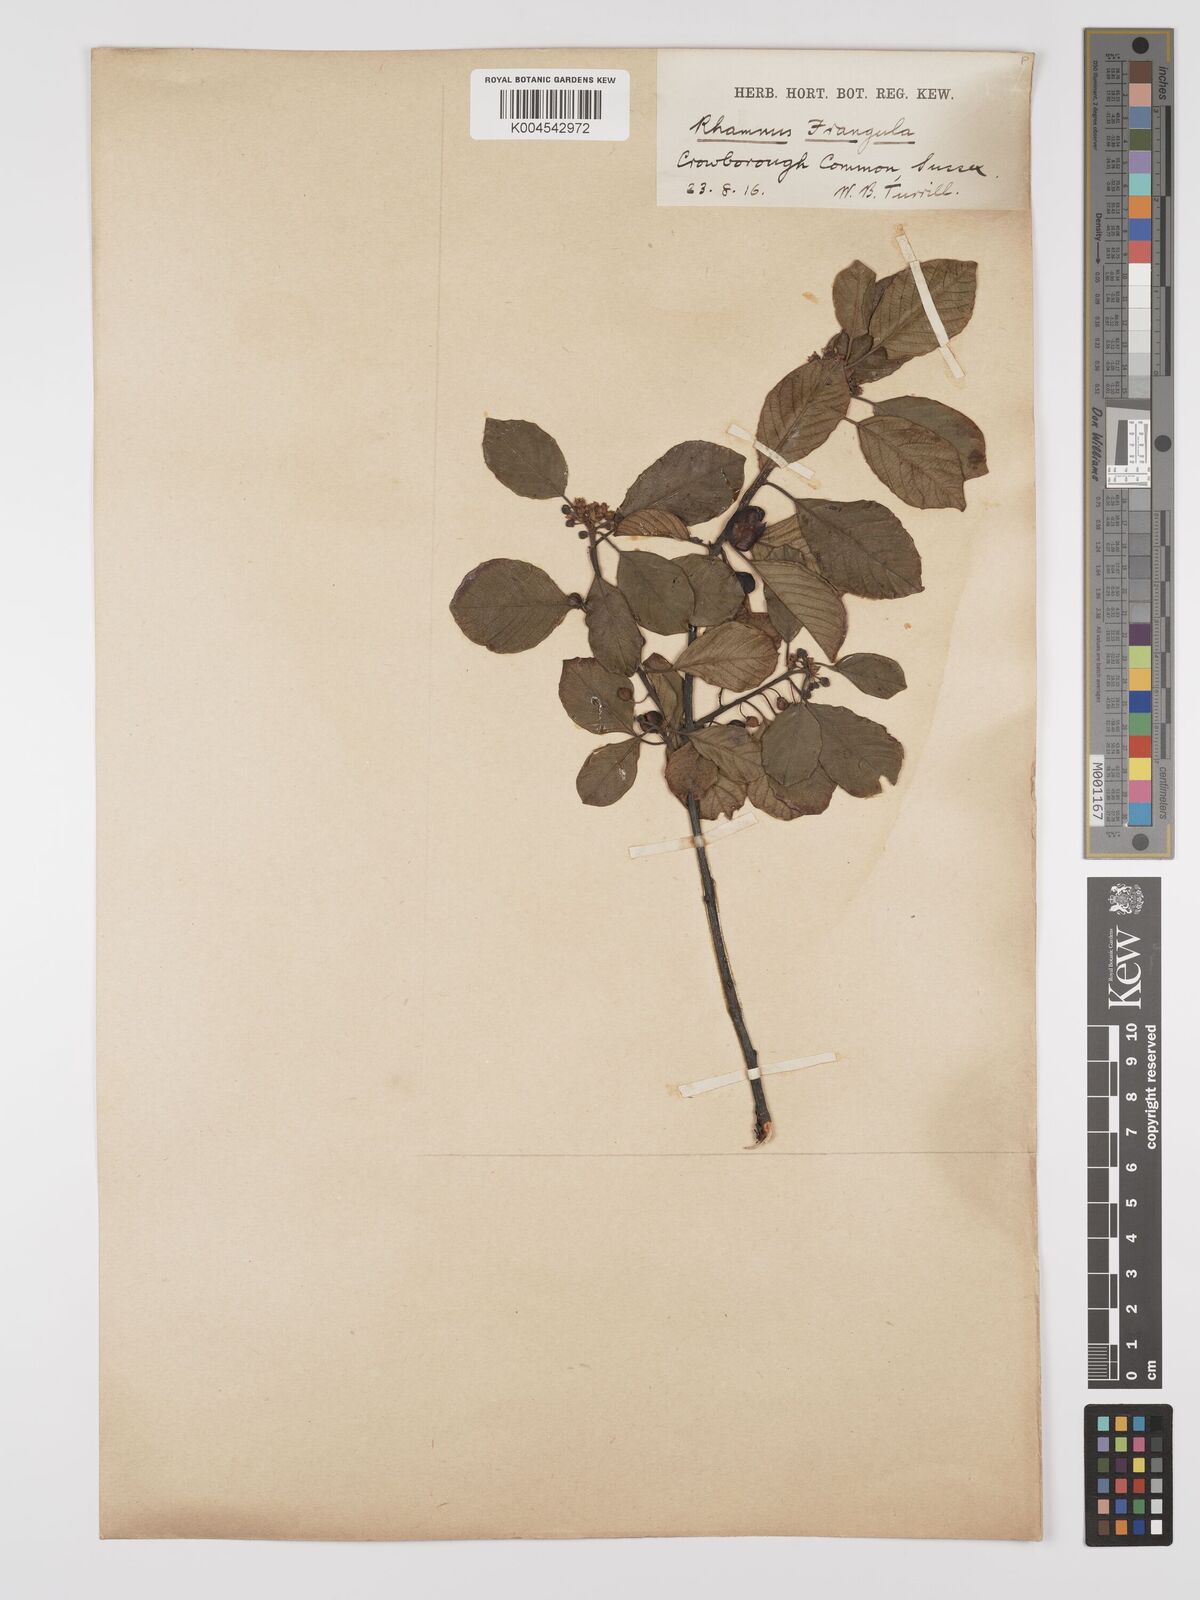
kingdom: Plantae
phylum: Tracheophyta
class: Magnoliopsida
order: Rosales
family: Rhamnaceae
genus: Frangula
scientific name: Frangula alnus
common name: Alder buckthorn
